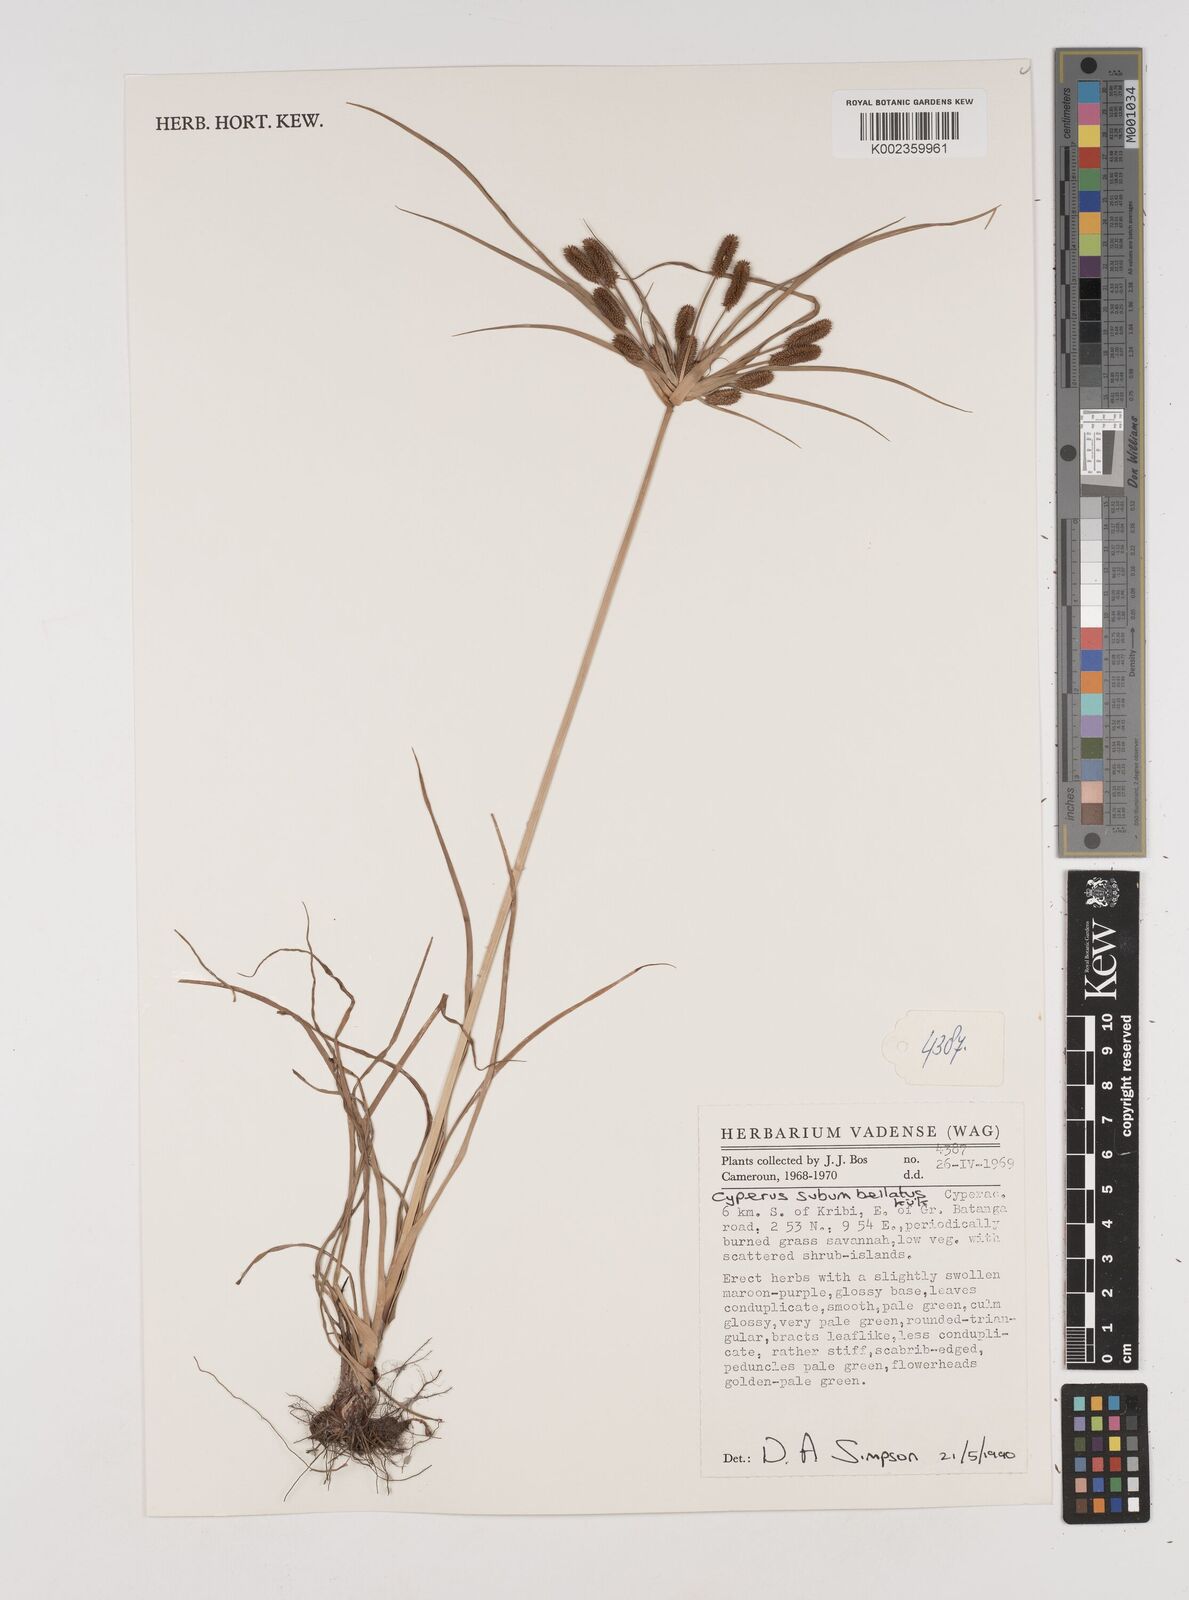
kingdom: Plantae
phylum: Tracheophyta
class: Liliopsida
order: Poales
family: Cyperaceae
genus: Cyperus
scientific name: Cyperus cyperoides
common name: Pacific island flat sedge
